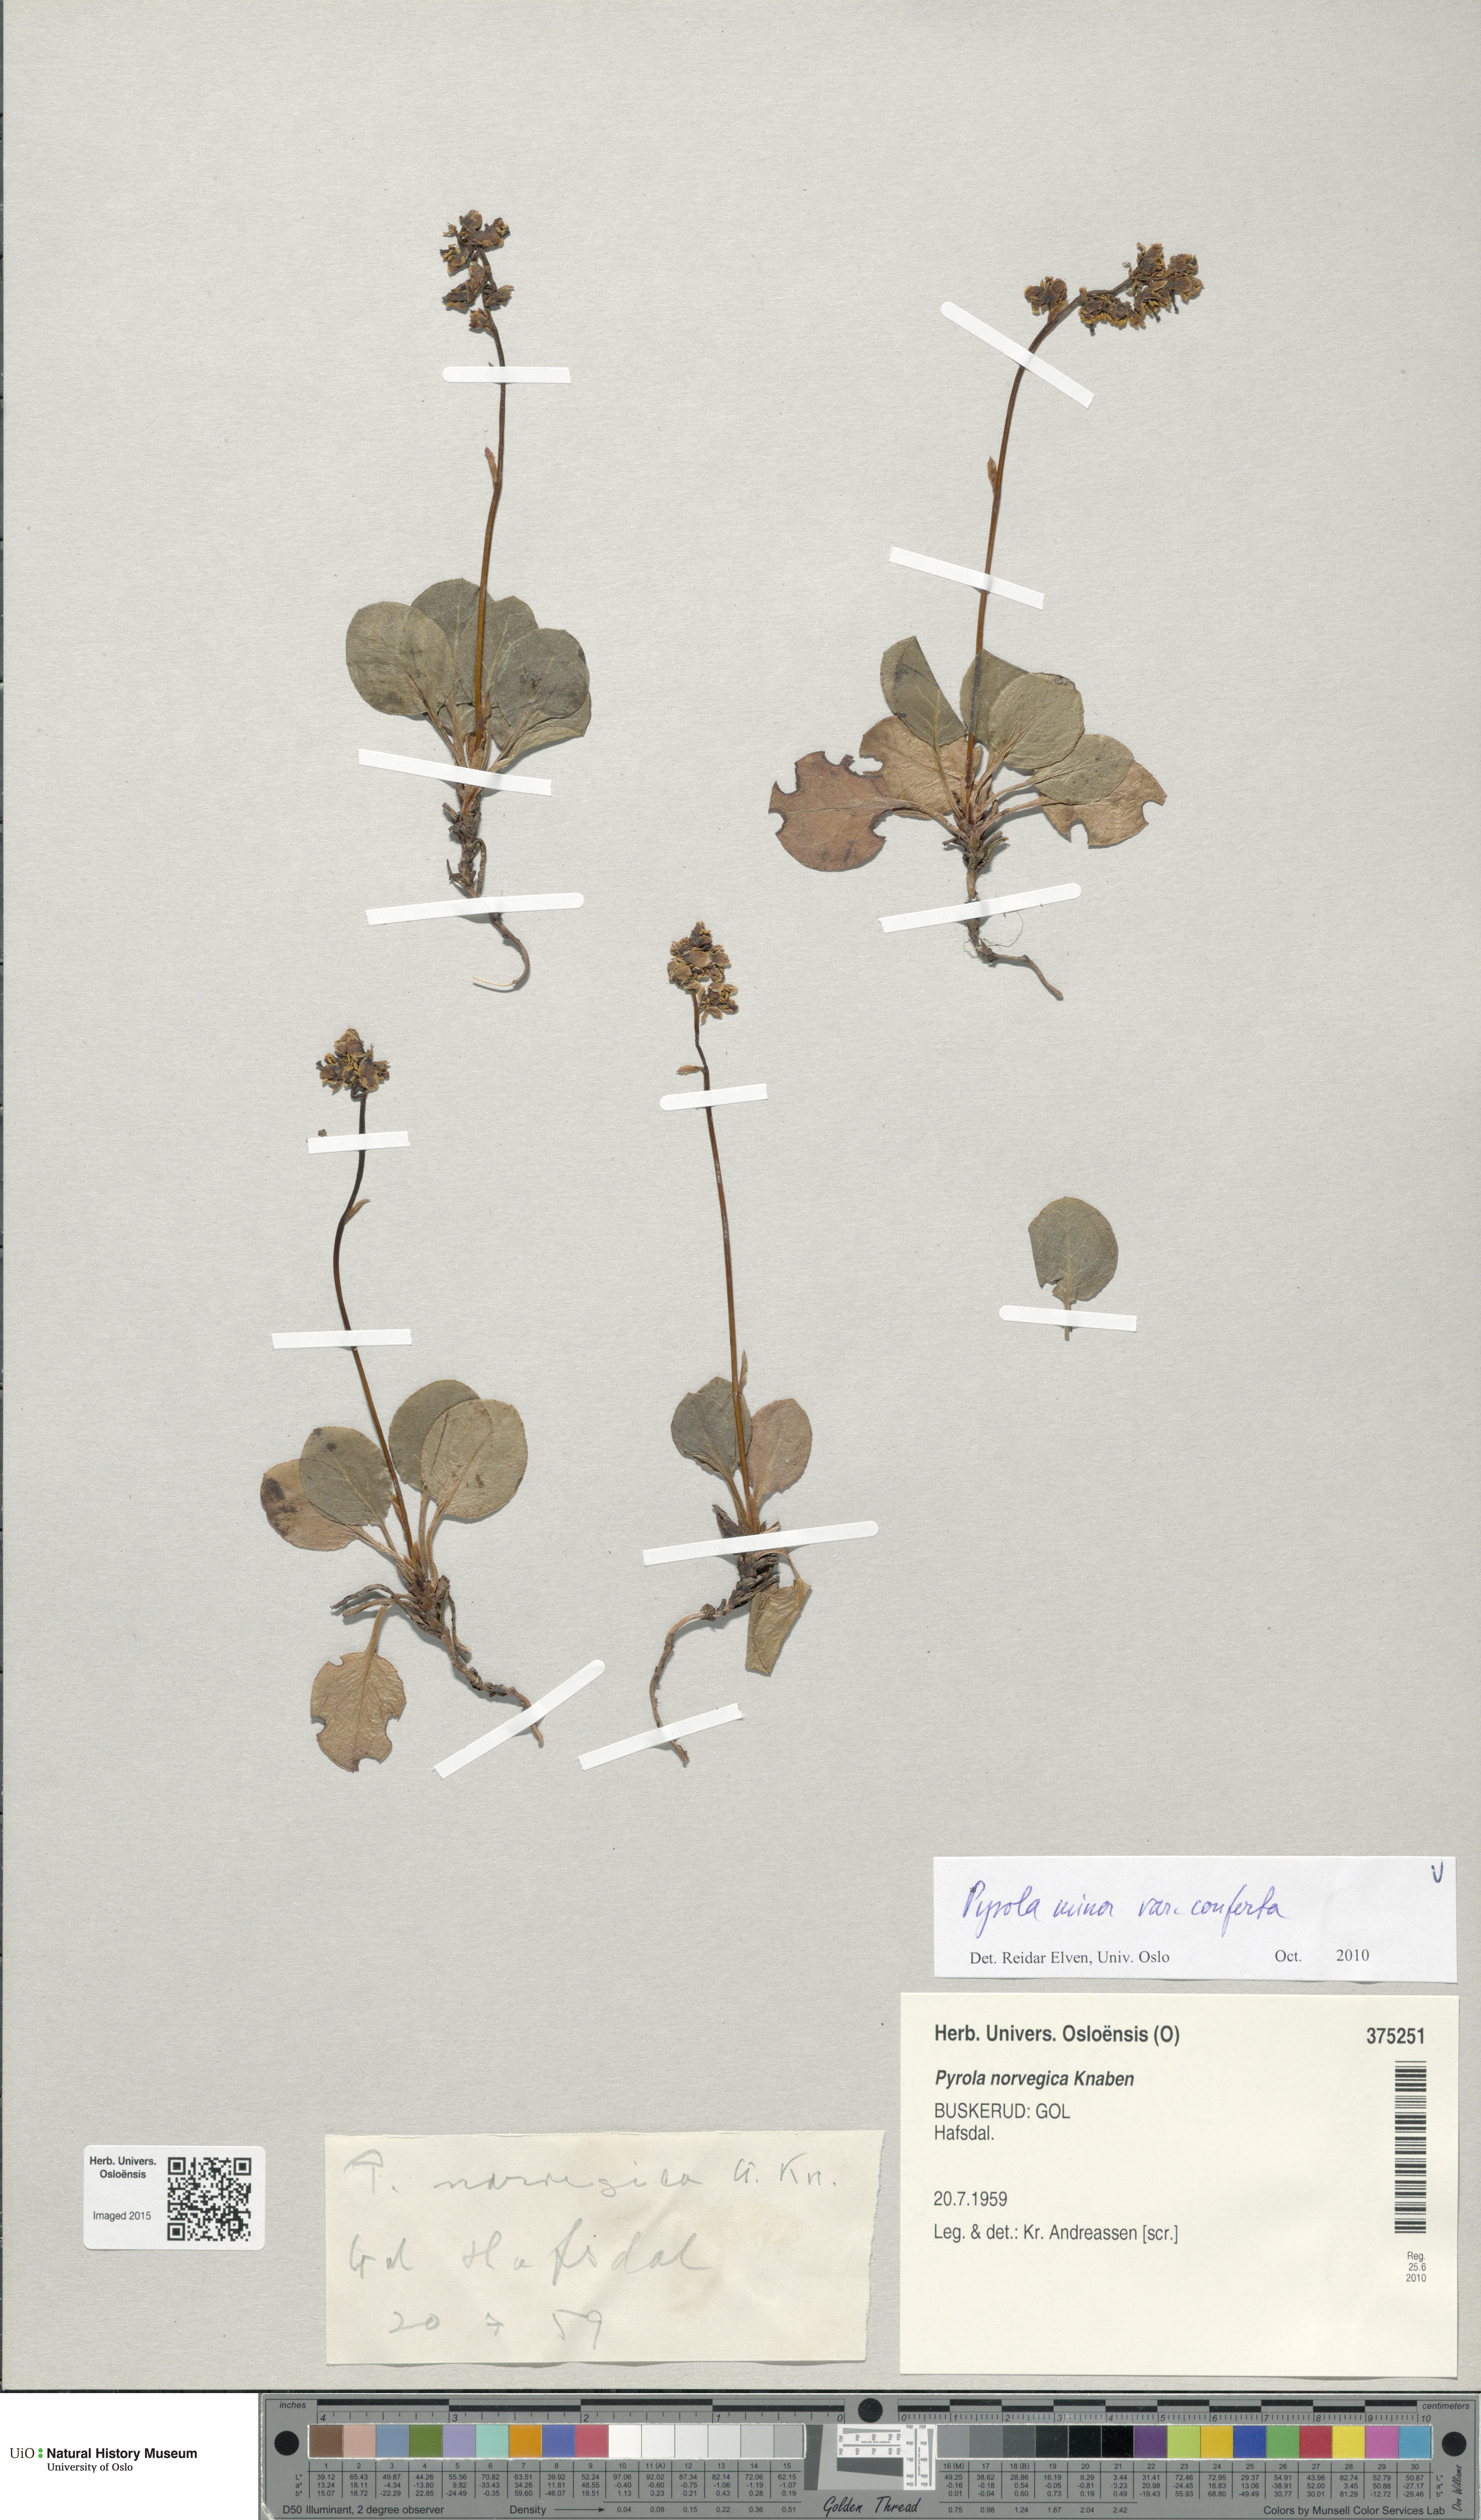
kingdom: Plantae
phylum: Tracheophyta
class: Magnoliopsida
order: Ericales
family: Ericaceae
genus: Pyrola
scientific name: Pyrola minor
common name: Common wintergreen
